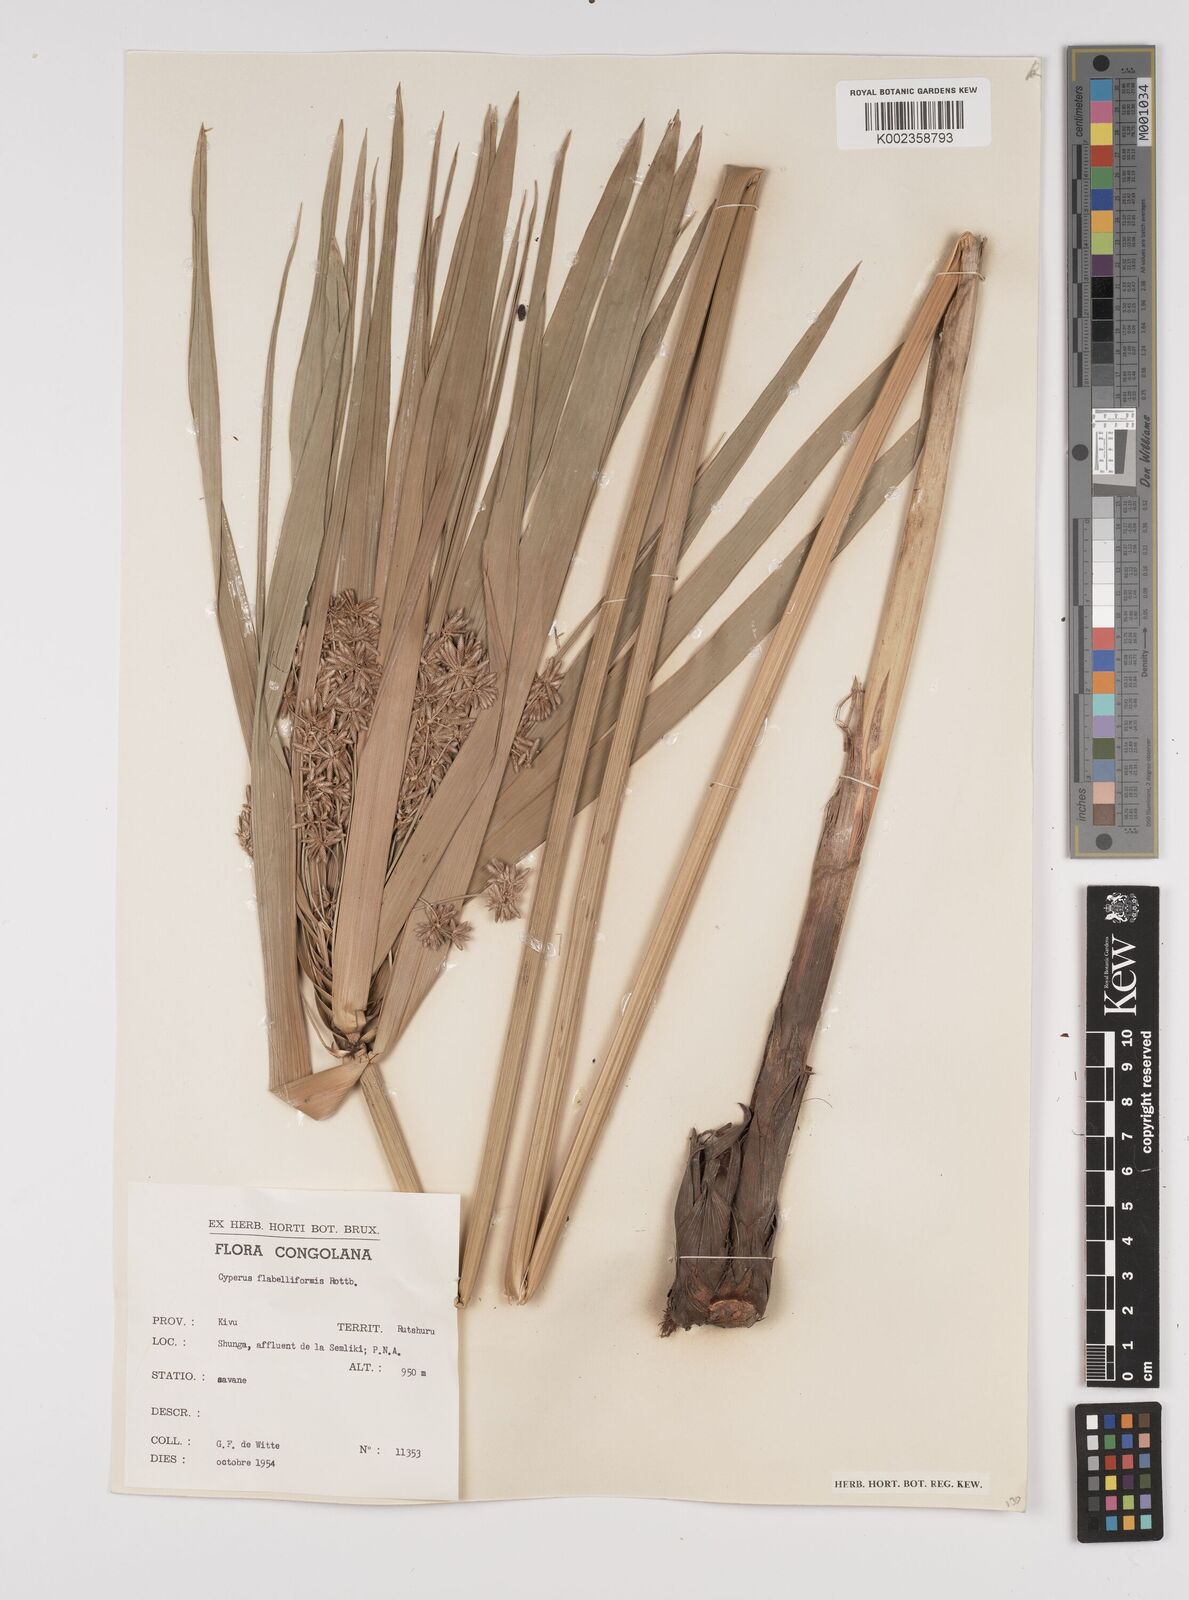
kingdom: Plantae
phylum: Tracheophyta
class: Liliopsida
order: Poales
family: Cyperaceae
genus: Cyperus
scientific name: Cyperus alternifolius
